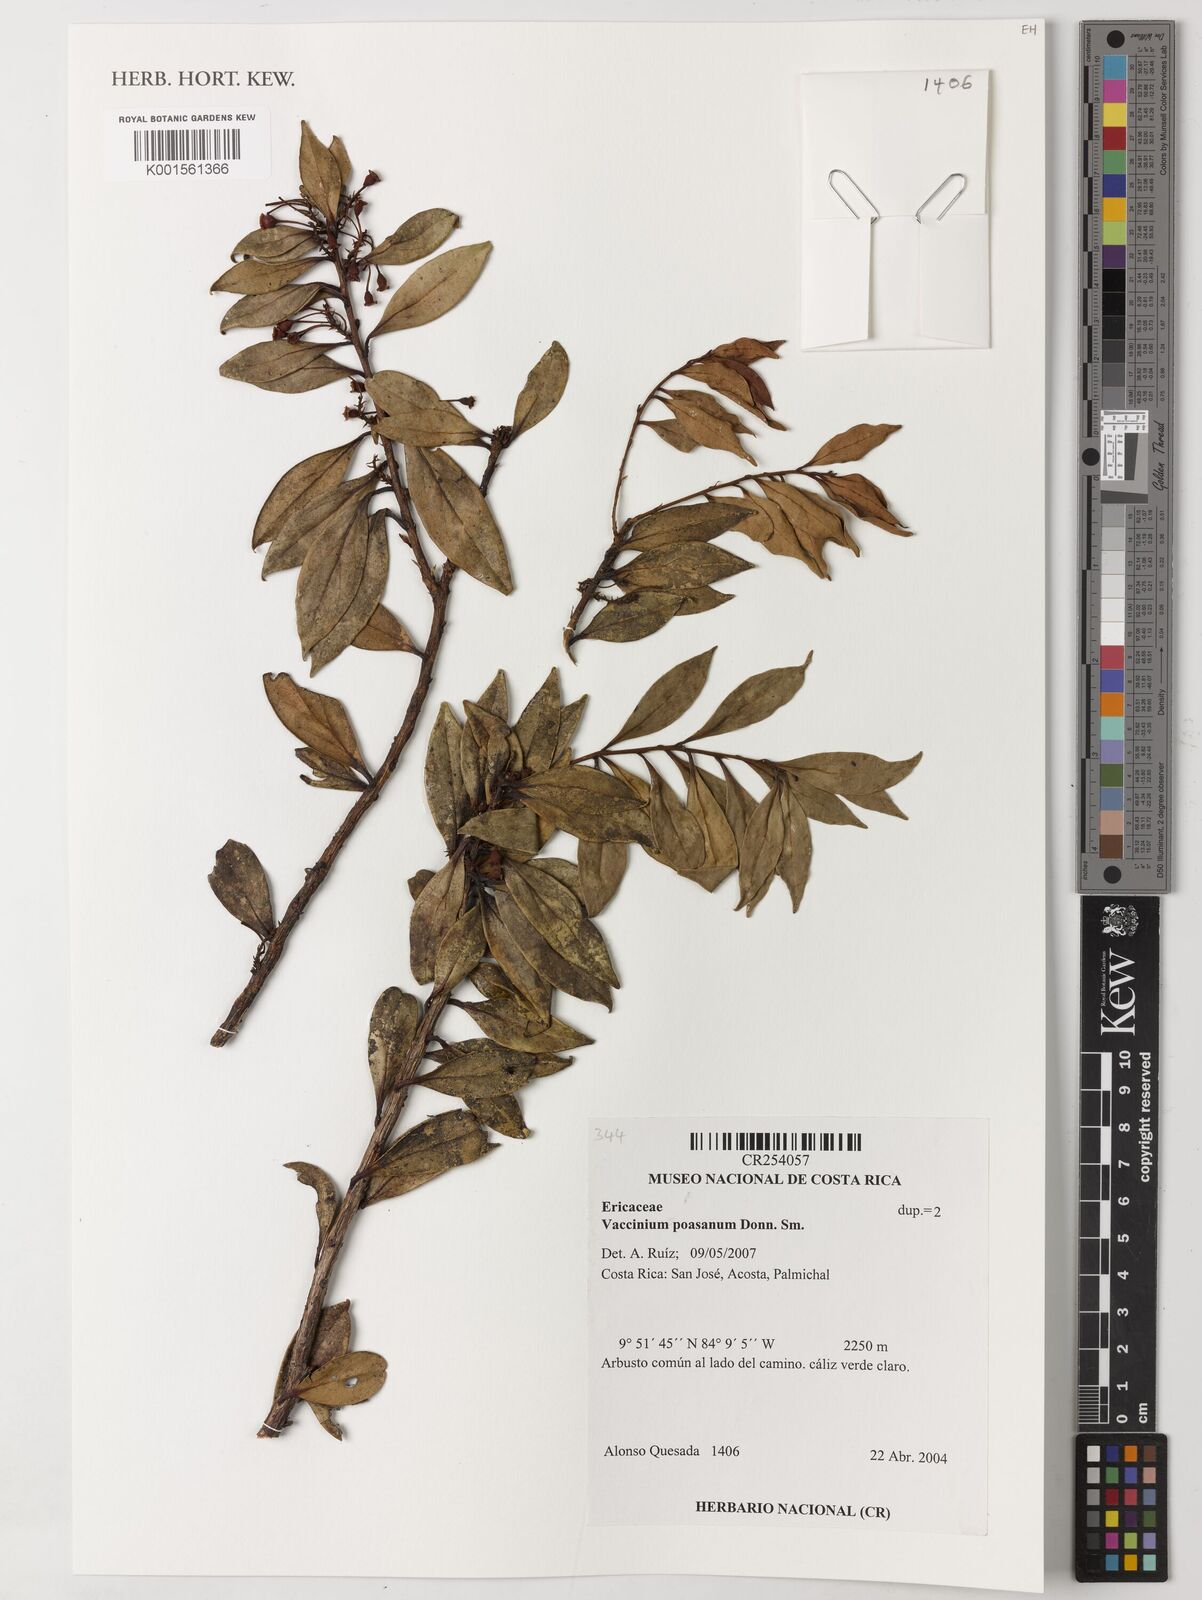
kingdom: Plantae
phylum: Tracheophyta
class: Magnoliopsida
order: Ericales
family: Ericaceae
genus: Symphysia
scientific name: Symphysia poasana
